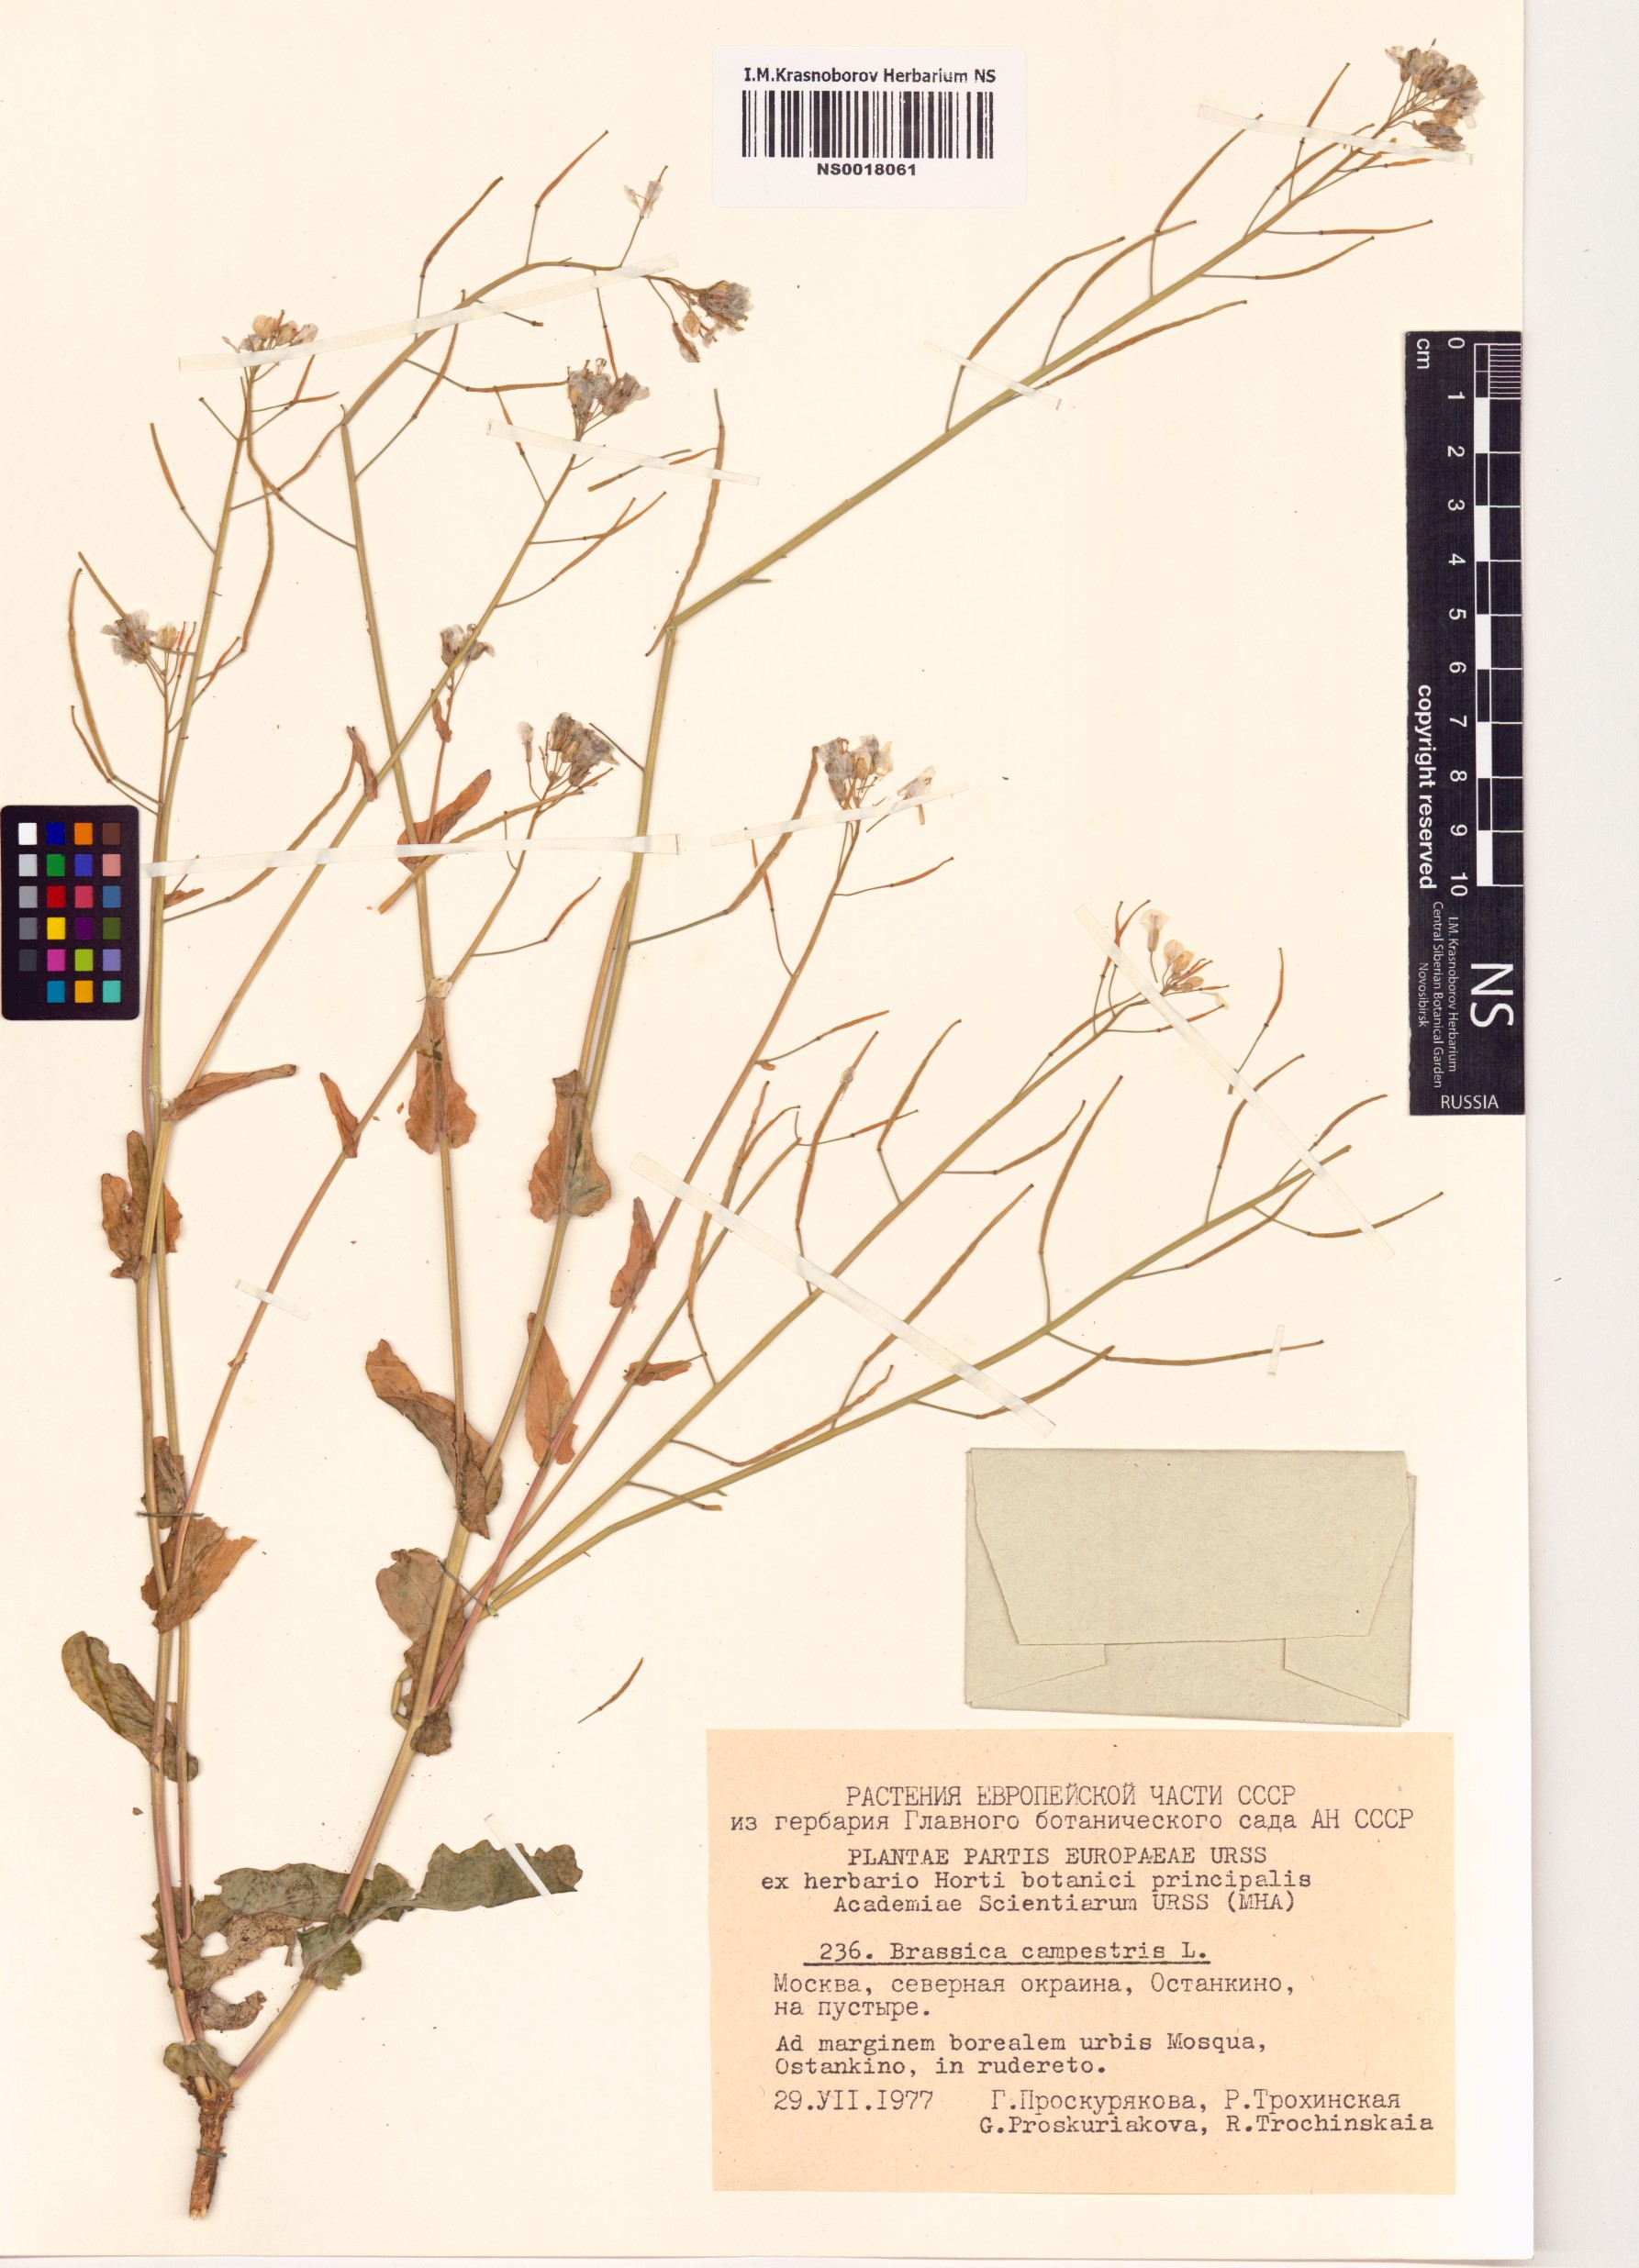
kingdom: Plantae
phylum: Tracheophyta
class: Magnoliopsida
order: Brassicales
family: Brassicaceae
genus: Brassica
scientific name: Brassica rapa
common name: Field mustard
